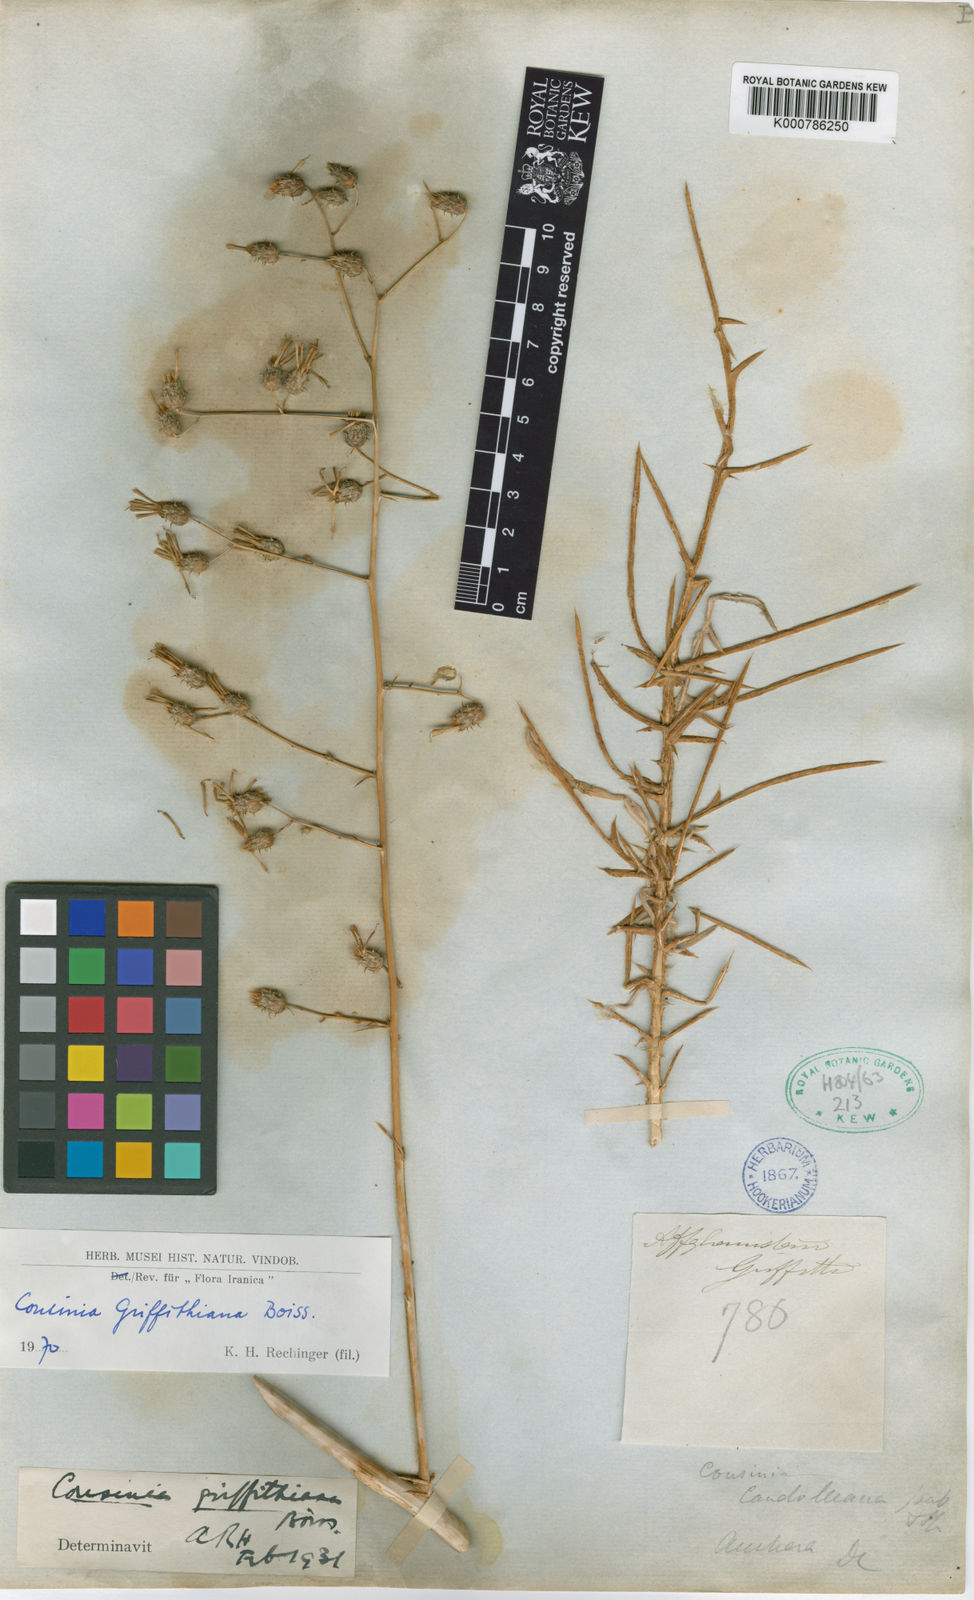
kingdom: Plantae
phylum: Tracheophyta
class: Magnoliopsida
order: Asterales
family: Asteraceae
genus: Cousinia
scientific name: Cousinia griffithiana
